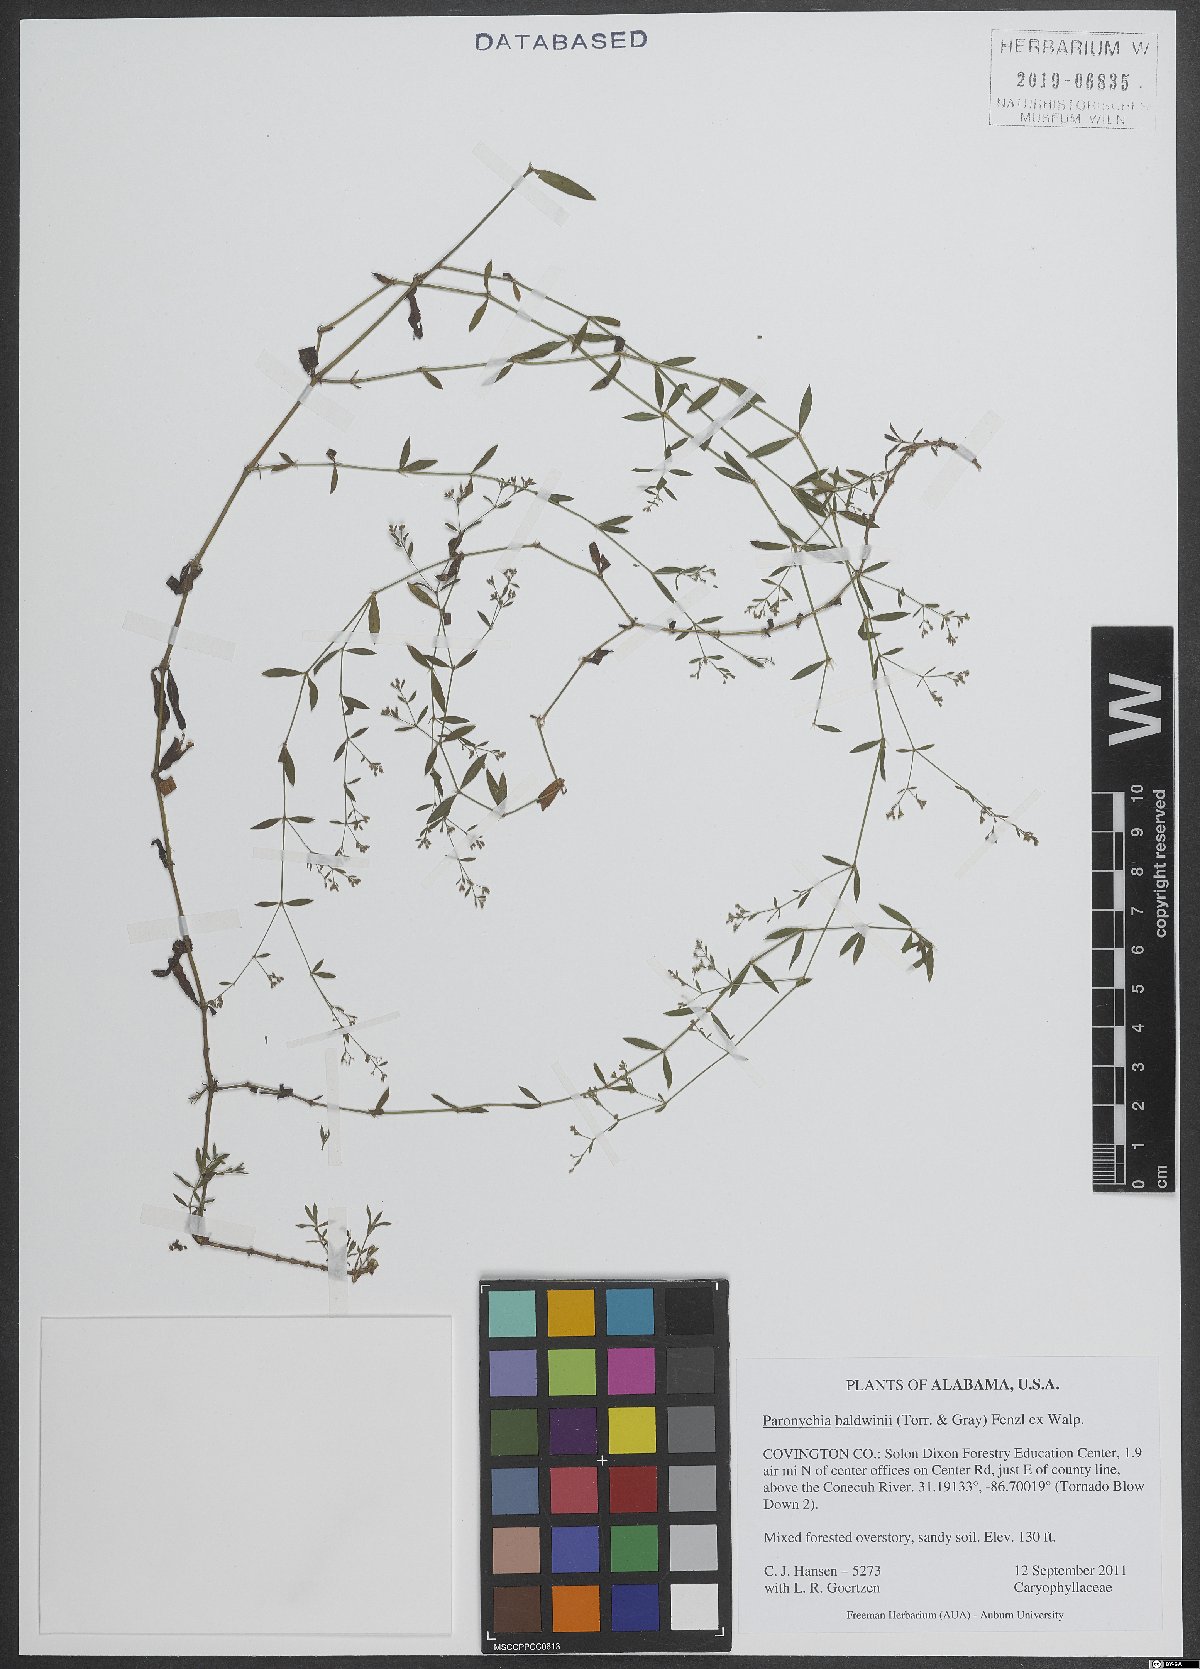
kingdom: Plantae
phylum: Tracheophyta
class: Magnoliopsida
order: Caryophyllales
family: Caryophyllaceae
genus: Paronychia
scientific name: Paronychia baldwinii
